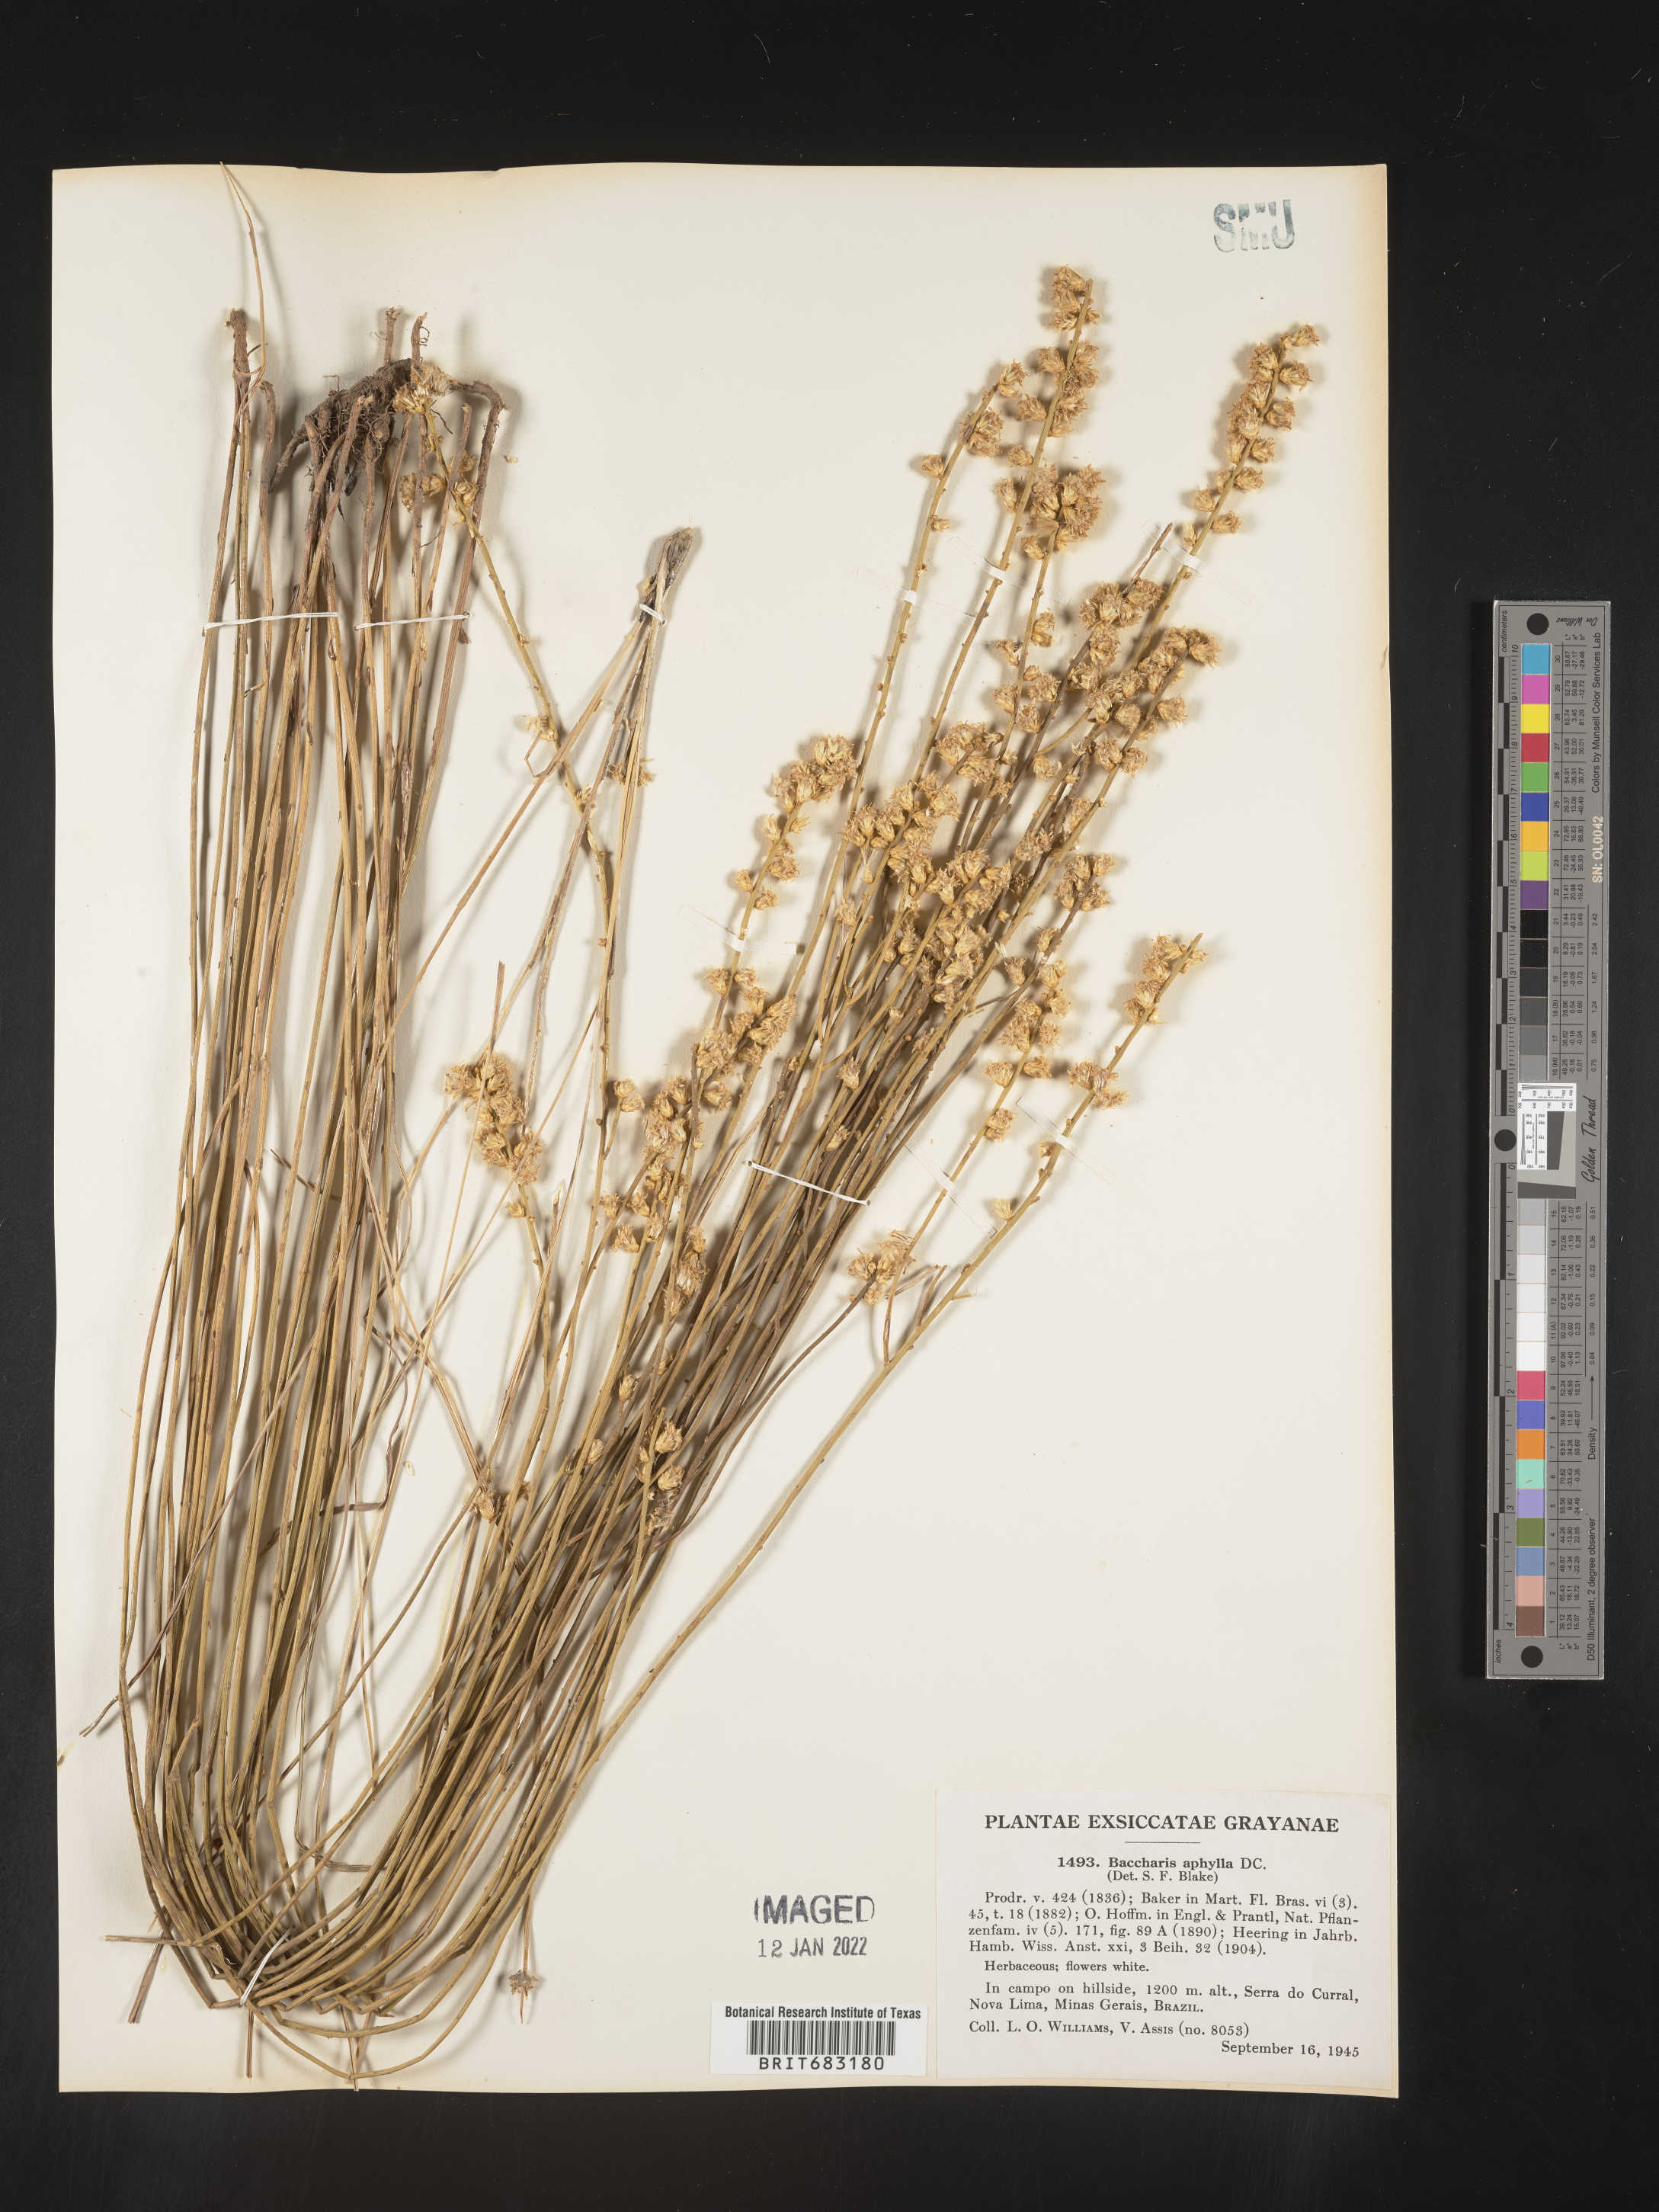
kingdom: Plantae
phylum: Tracheophyta
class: Magnoliopsida
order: Asterales
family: Asteraceae
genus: Baccharis
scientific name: Baccharis
